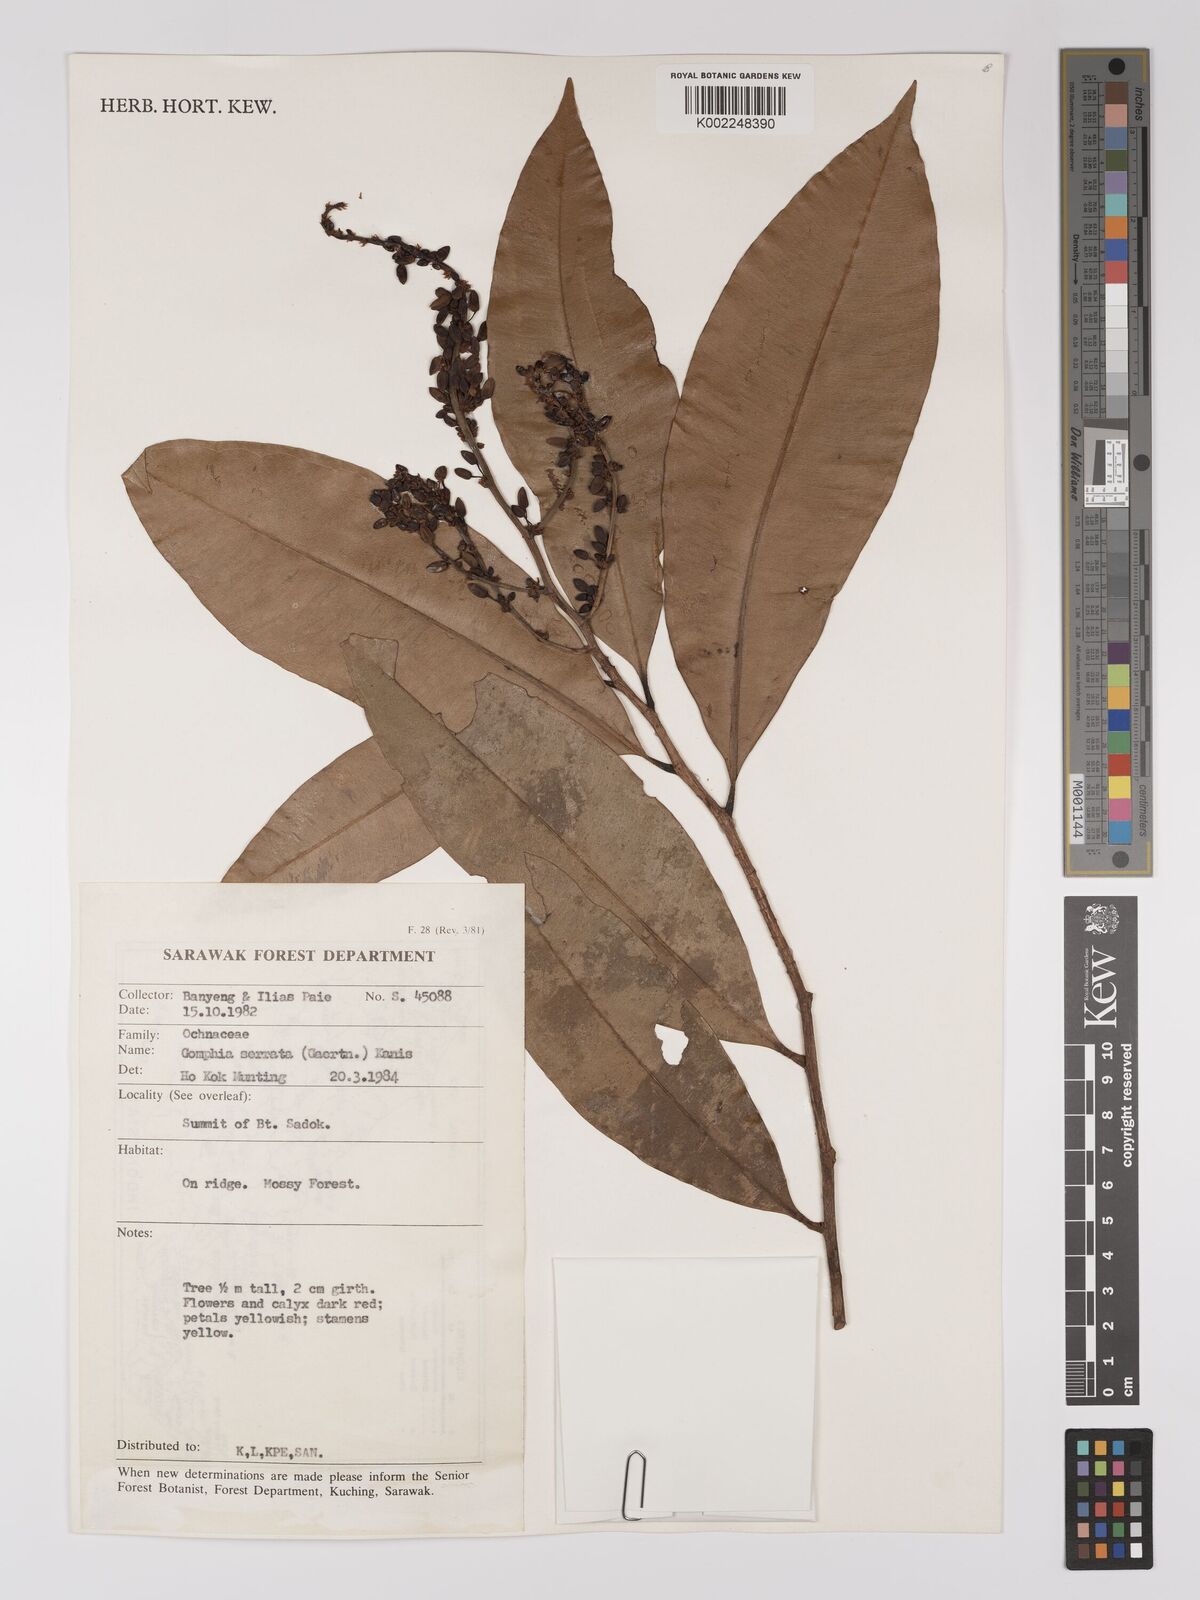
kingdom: Plantae
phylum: Tracheophyta
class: Magnoliopsida
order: Malpighiales
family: Ochnaceae
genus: Gomphia
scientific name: Gomphia serrata
